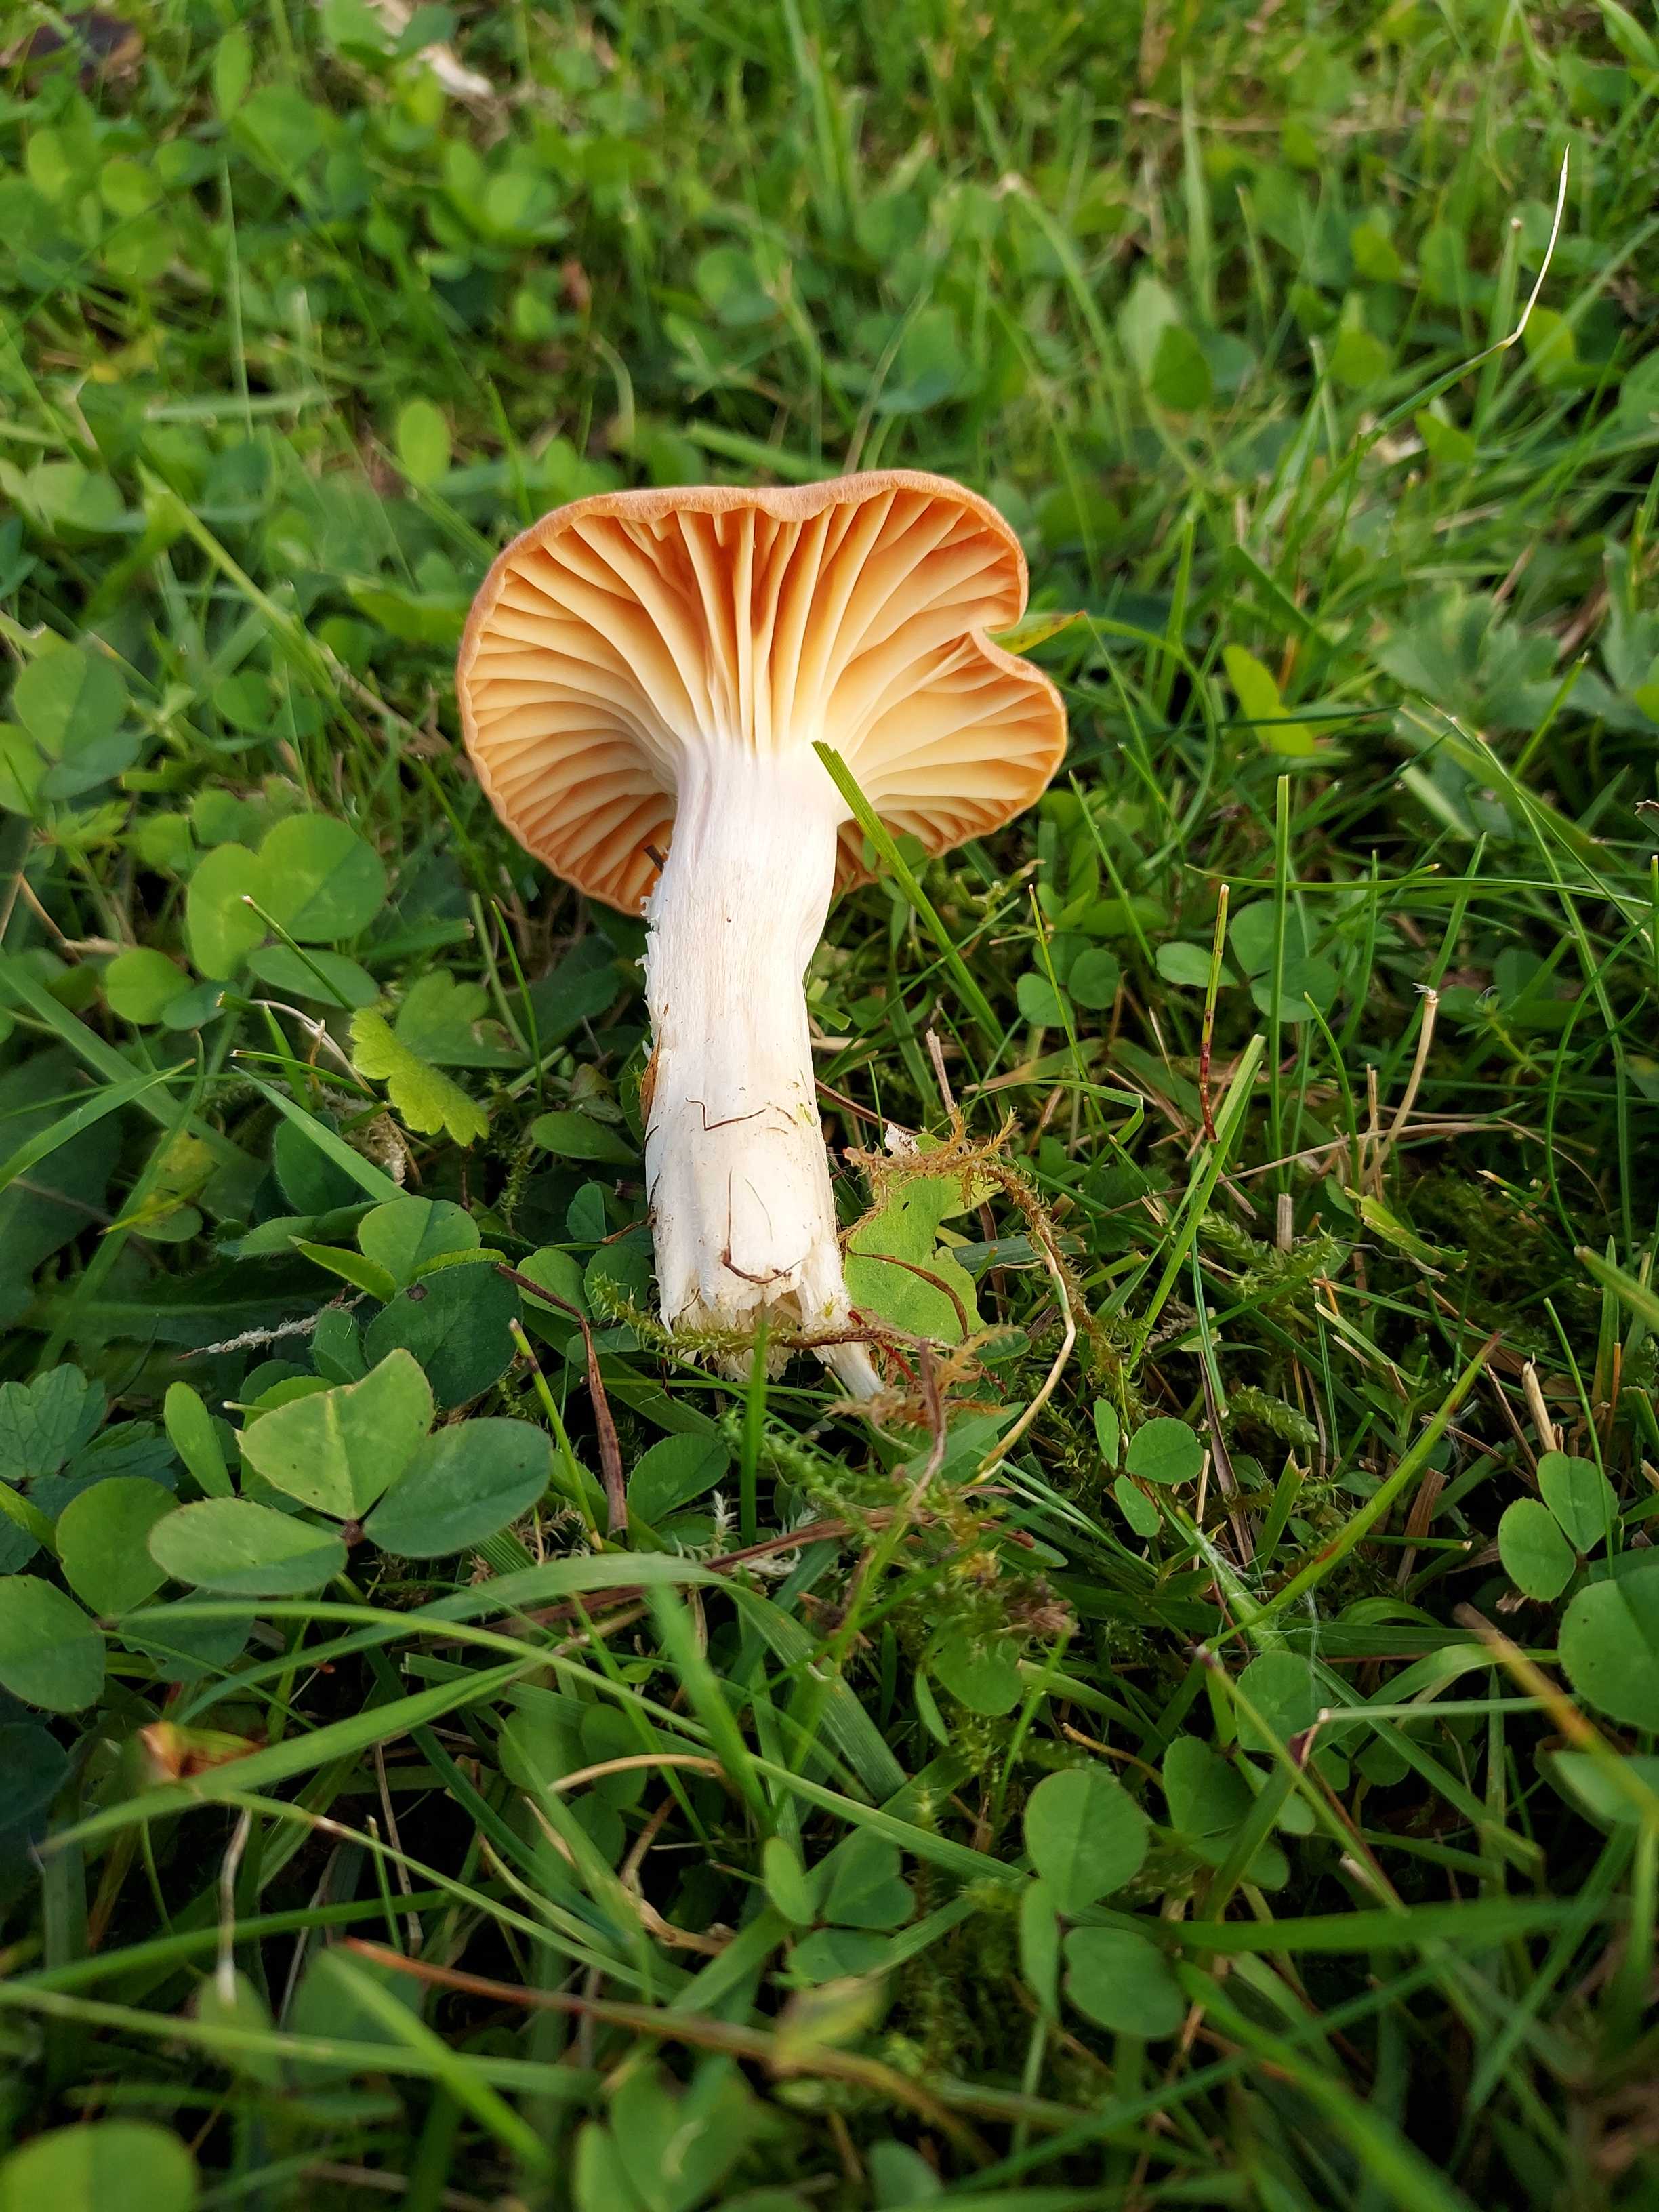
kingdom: Fungi
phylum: Basidiomycota
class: Agaricomycetes
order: Agaricales
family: Hygrophoraceae
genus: Cuphophyllus
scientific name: Cuphophyllus pratensis
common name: eng-vokshat
